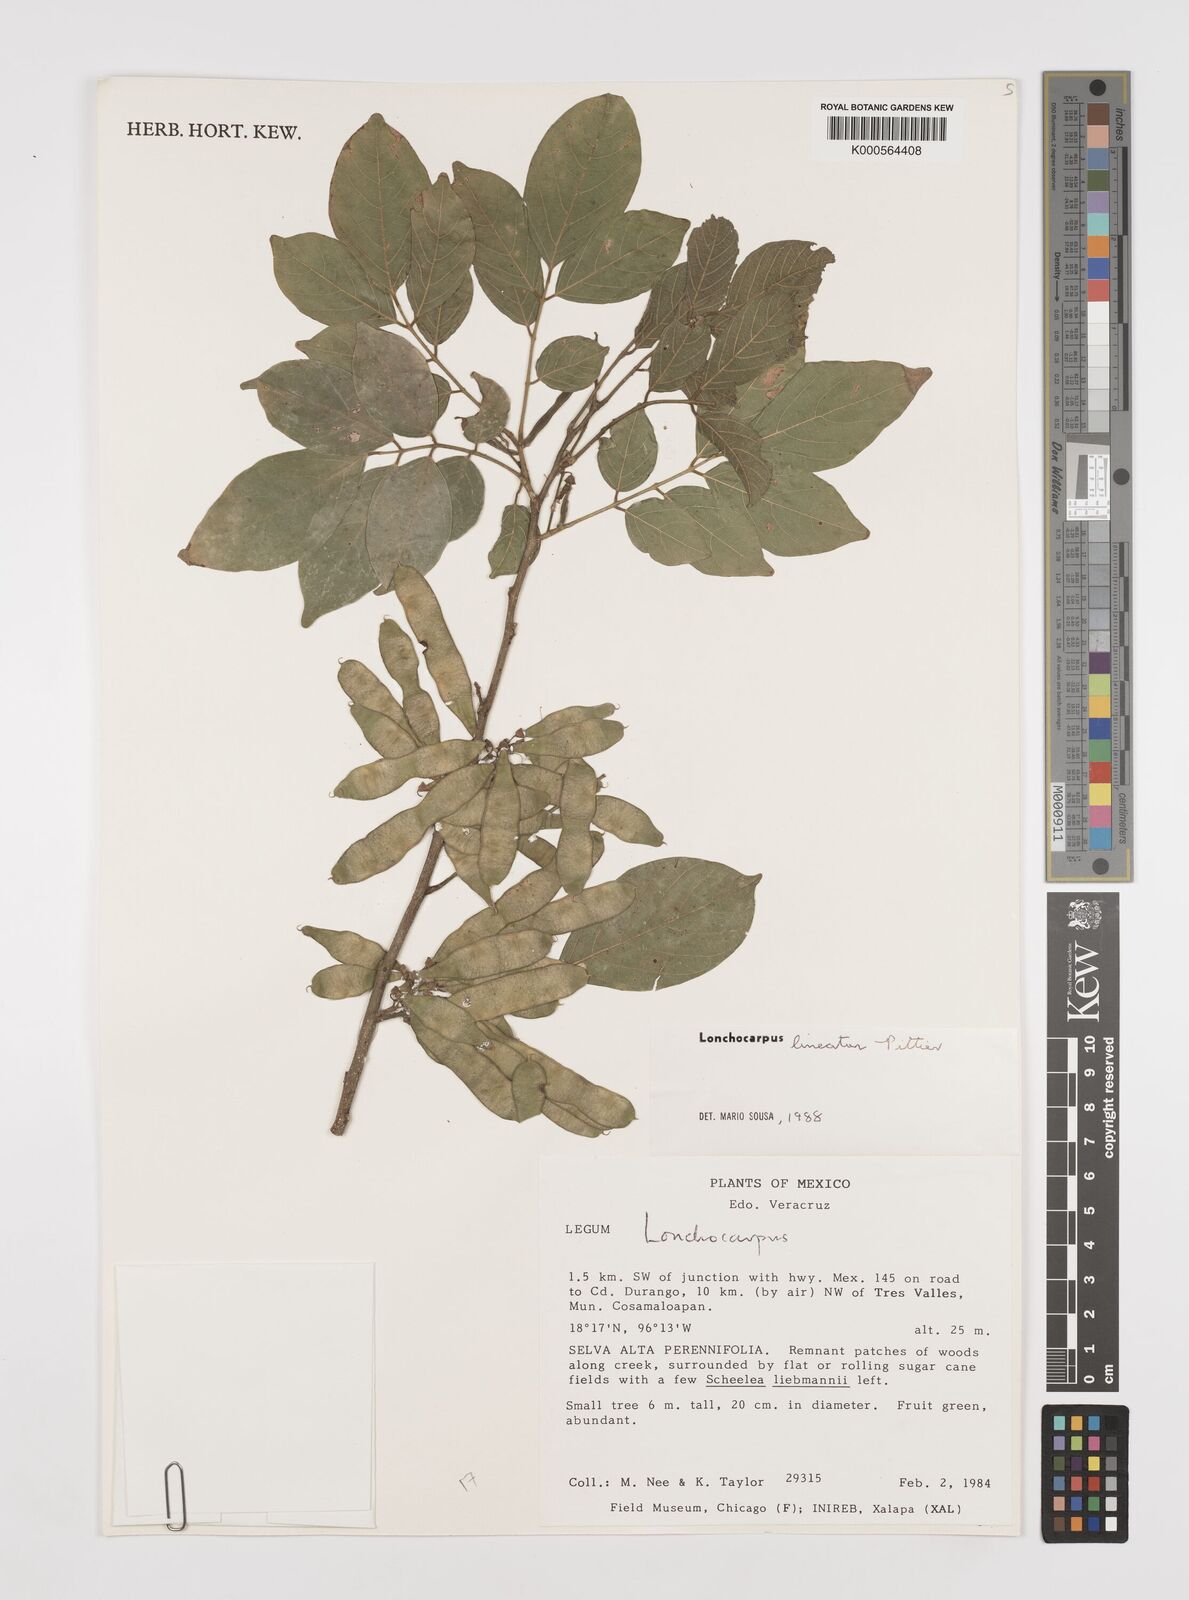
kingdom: Plantae
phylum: Tracheophyta
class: Magnoliopsida
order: Fabales
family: Fabaceae
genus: Lonchocarpus
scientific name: Lonchocarpus lineatus
